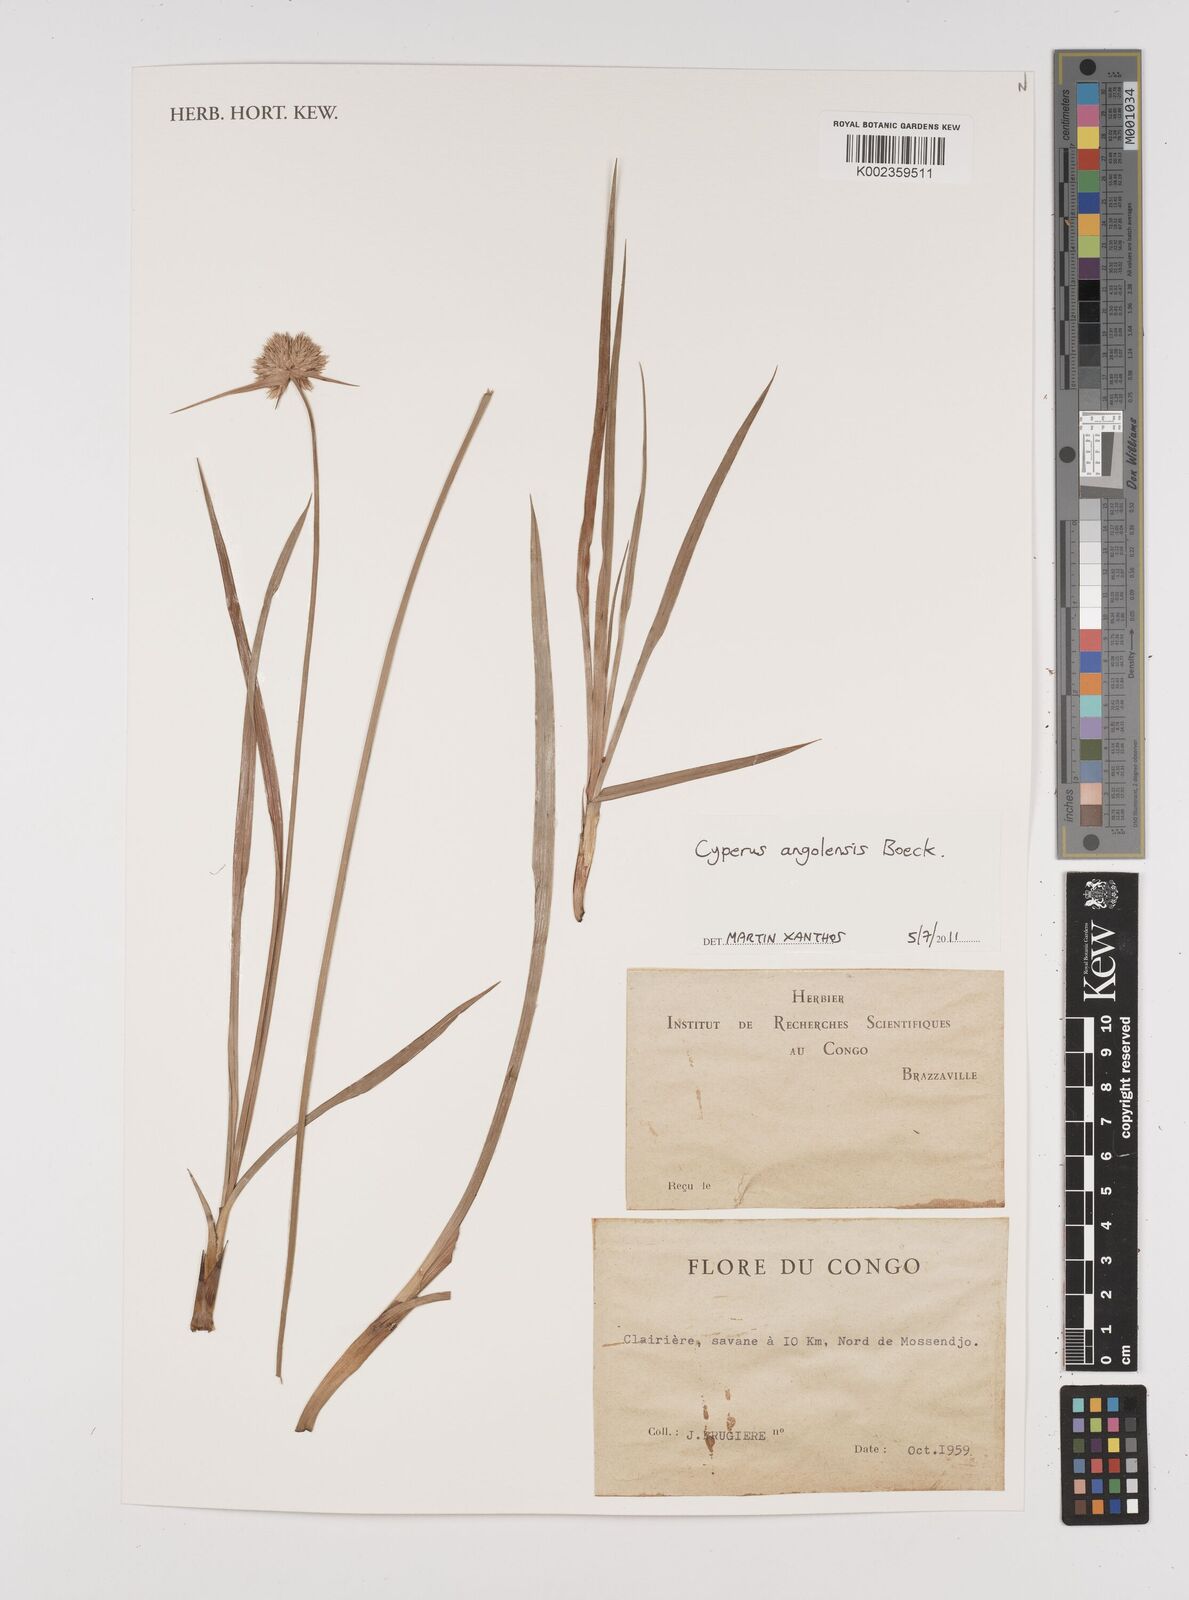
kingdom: Plantae
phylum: Tracheophyta
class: Liliopsida
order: Poales
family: Cyperaceae
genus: Cyperus
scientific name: Cyperus angolensis
